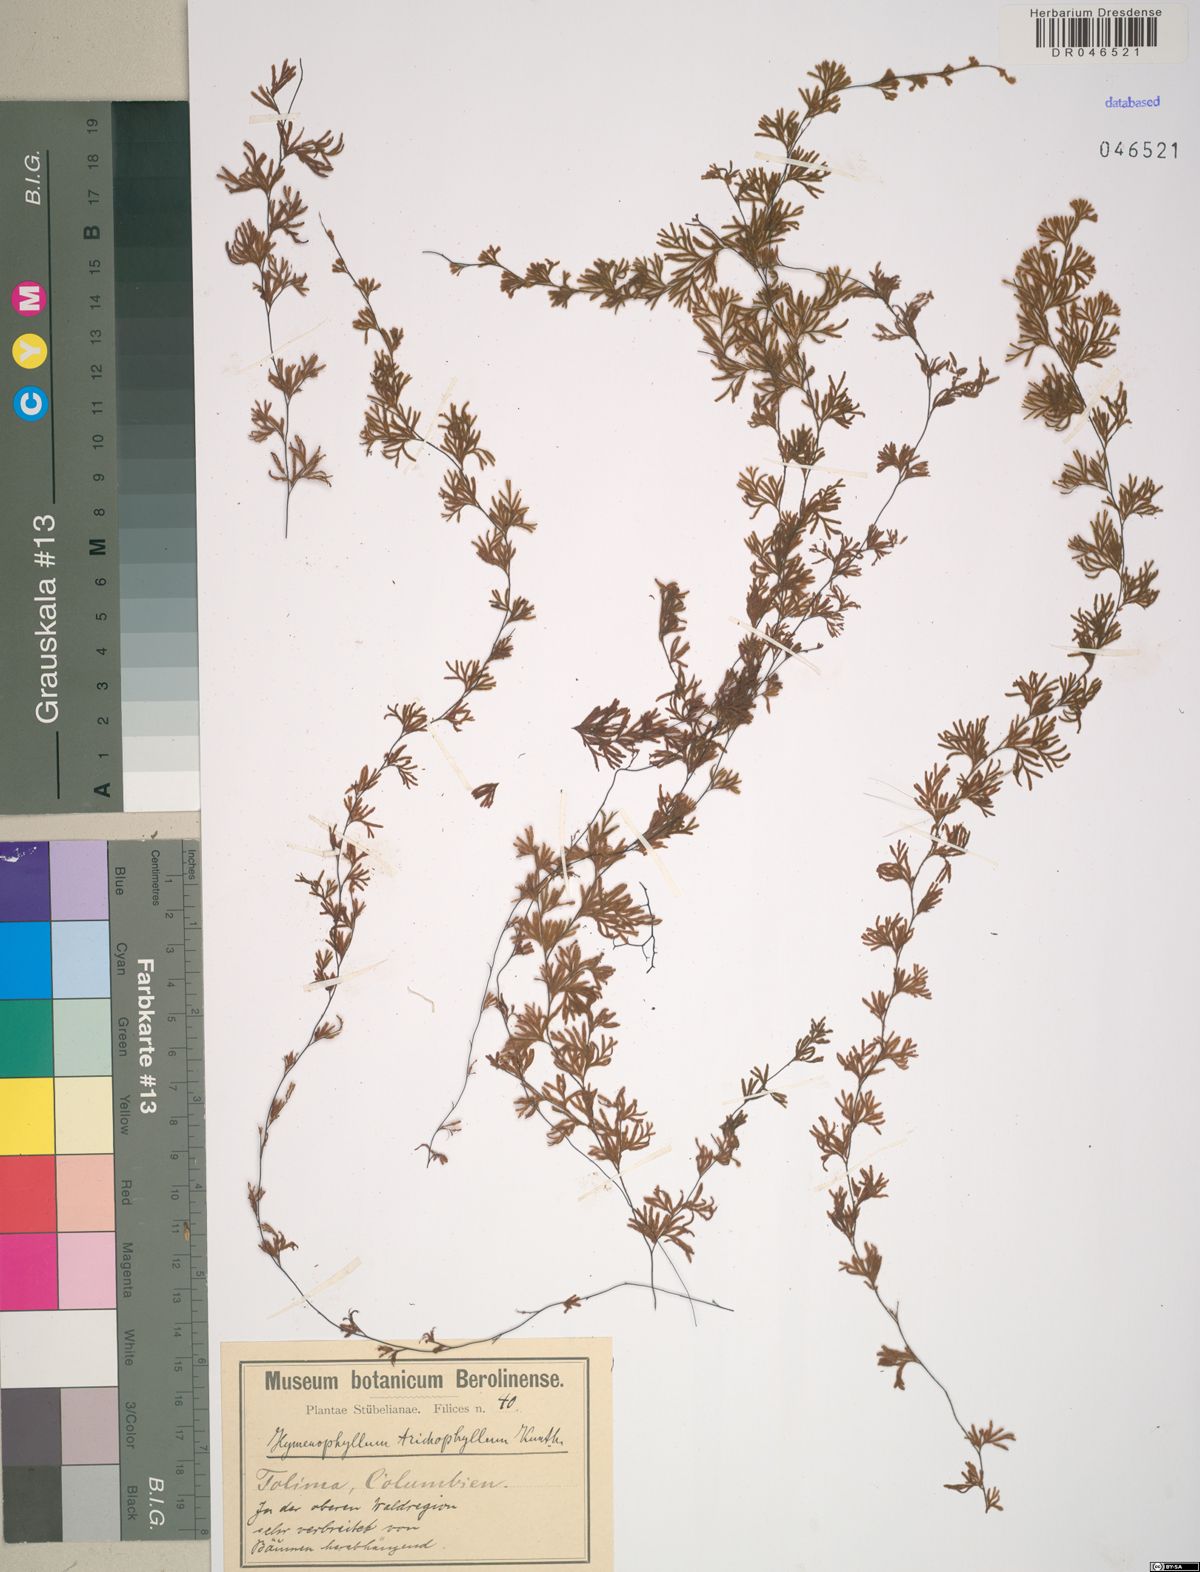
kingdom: Plantae
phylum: Tracheophyta
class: Polypodiopsida
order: Hymenophyllales
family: Hymenophyllaceae
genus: Hymenophyllum
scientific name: Hymenophyllum trichophyllum
